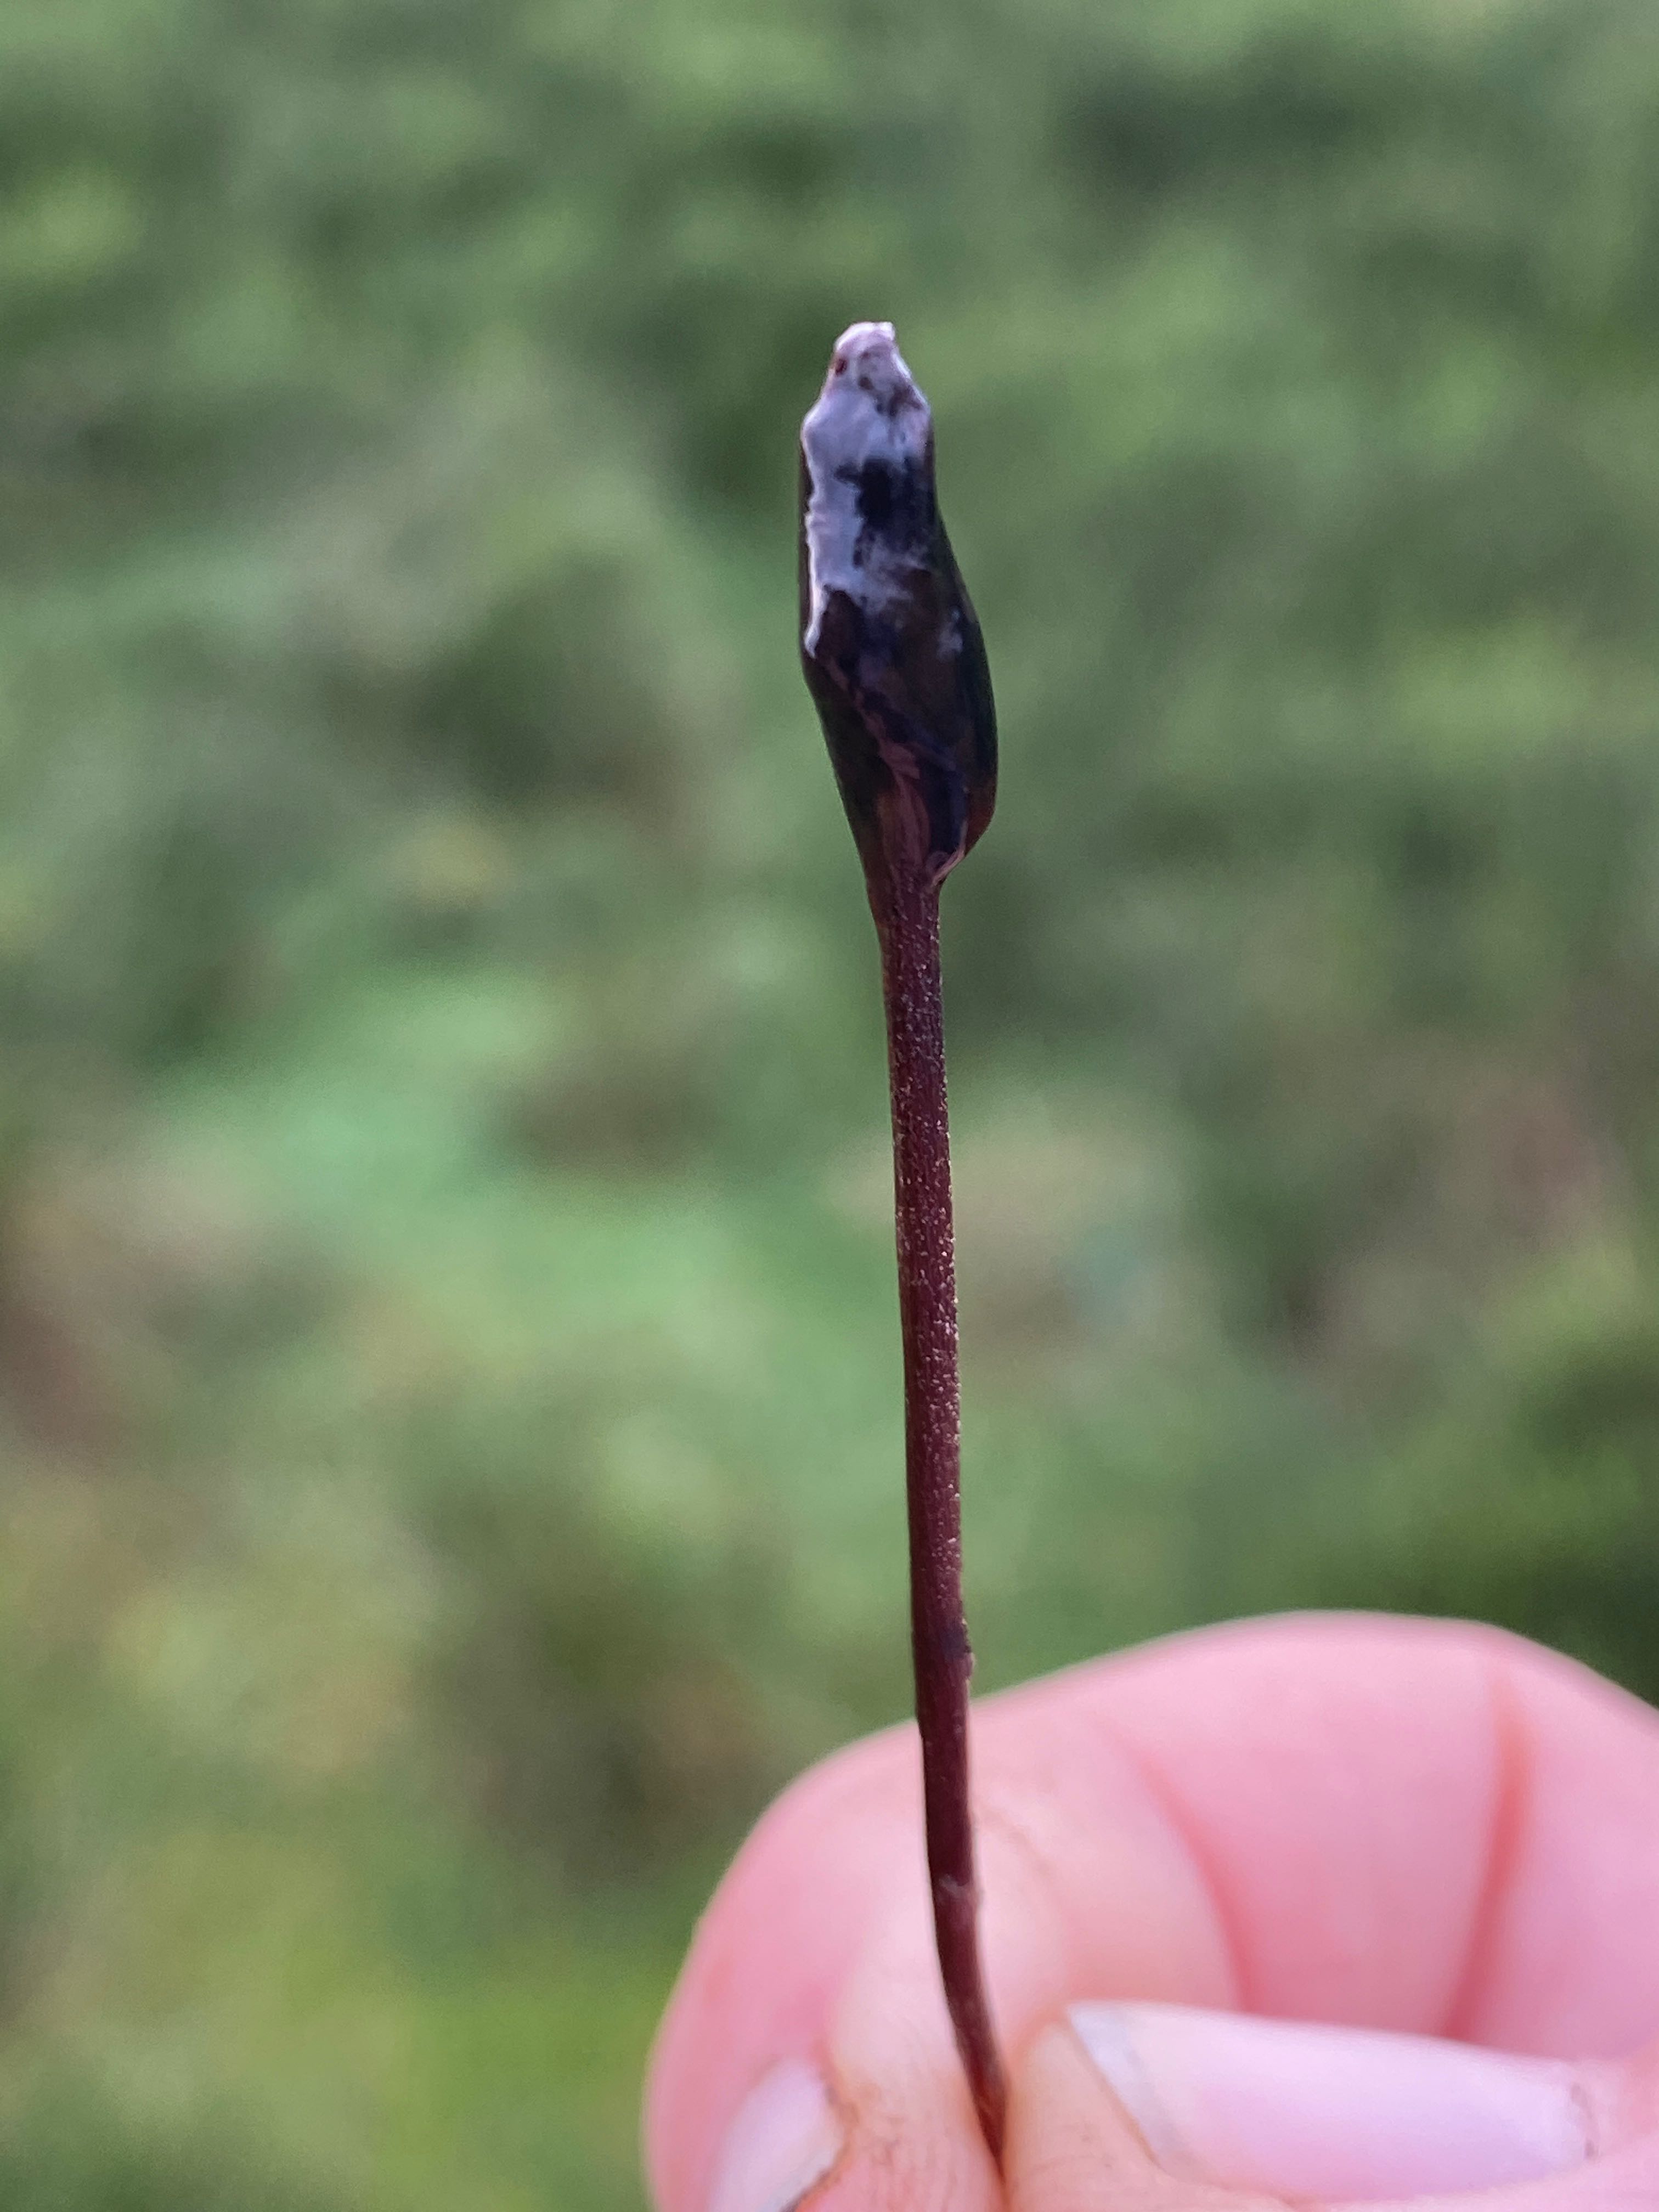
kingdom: Fungi
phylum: Ascomycota
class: Geoglossomycetes
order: Geoglossales
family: Geoglossaceae
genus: Glutinoglossum
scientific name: Glutinoglossum
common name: jordtunge
